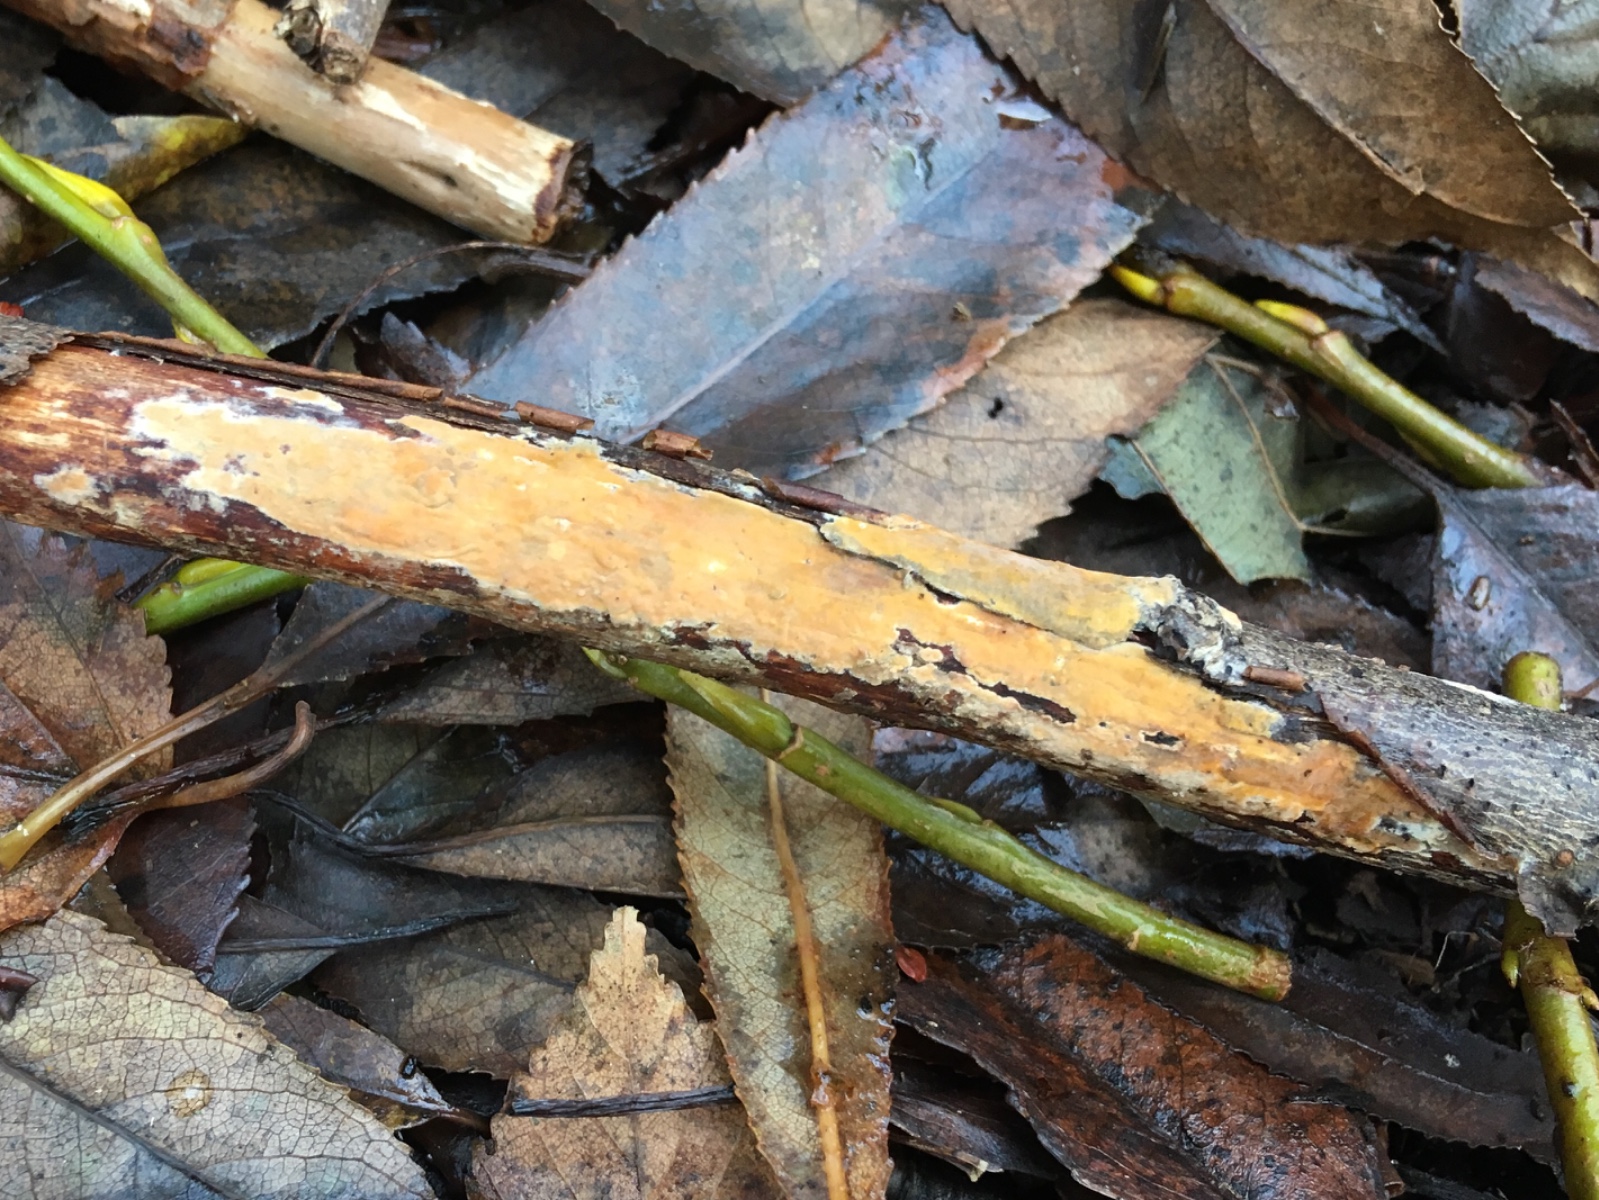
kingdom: Fungi
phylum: Basidiomycota
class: Agaricomycetes
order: Russulales
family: Peniophoraceae
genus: Peniophora
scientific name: Peniophora incarnata
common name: laksefarvet voksskind
